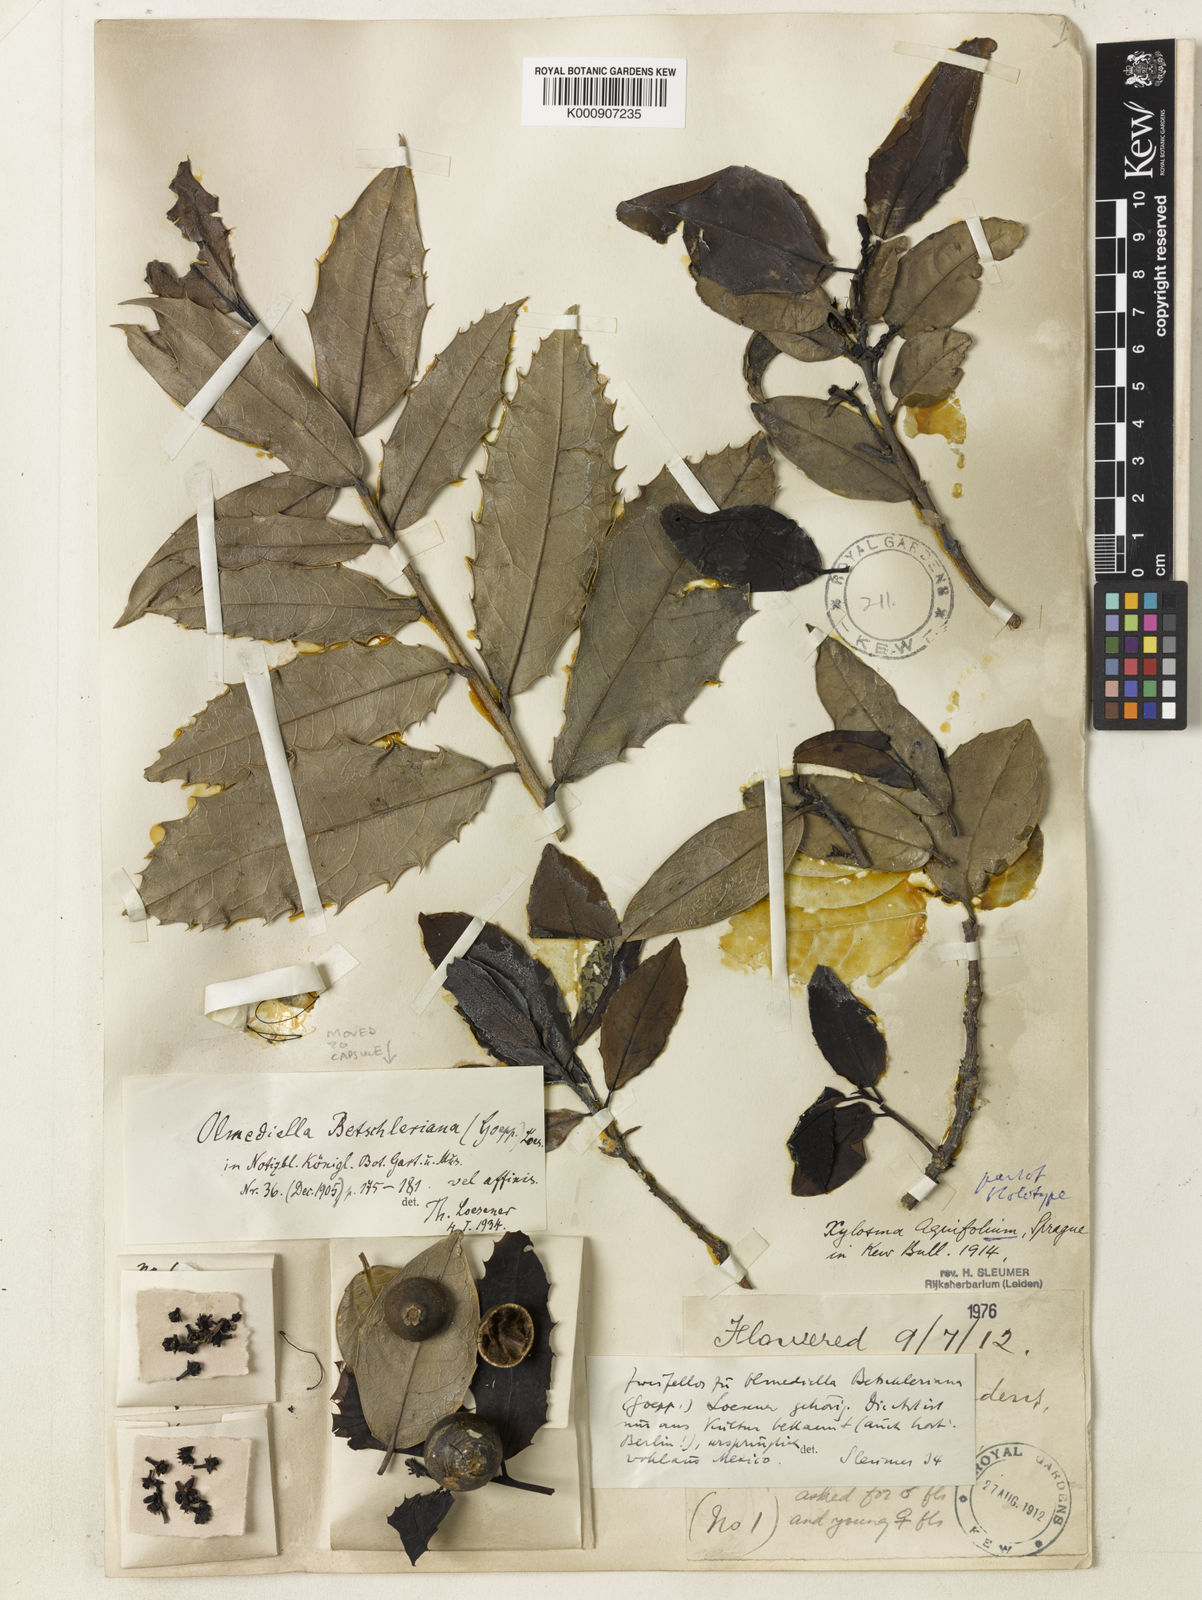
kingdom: Plantae
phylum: Tracheophyta
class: Magnoliopsida
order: Malpighiales
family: Salicaceae
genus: Olmediella
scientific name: Olmediella
